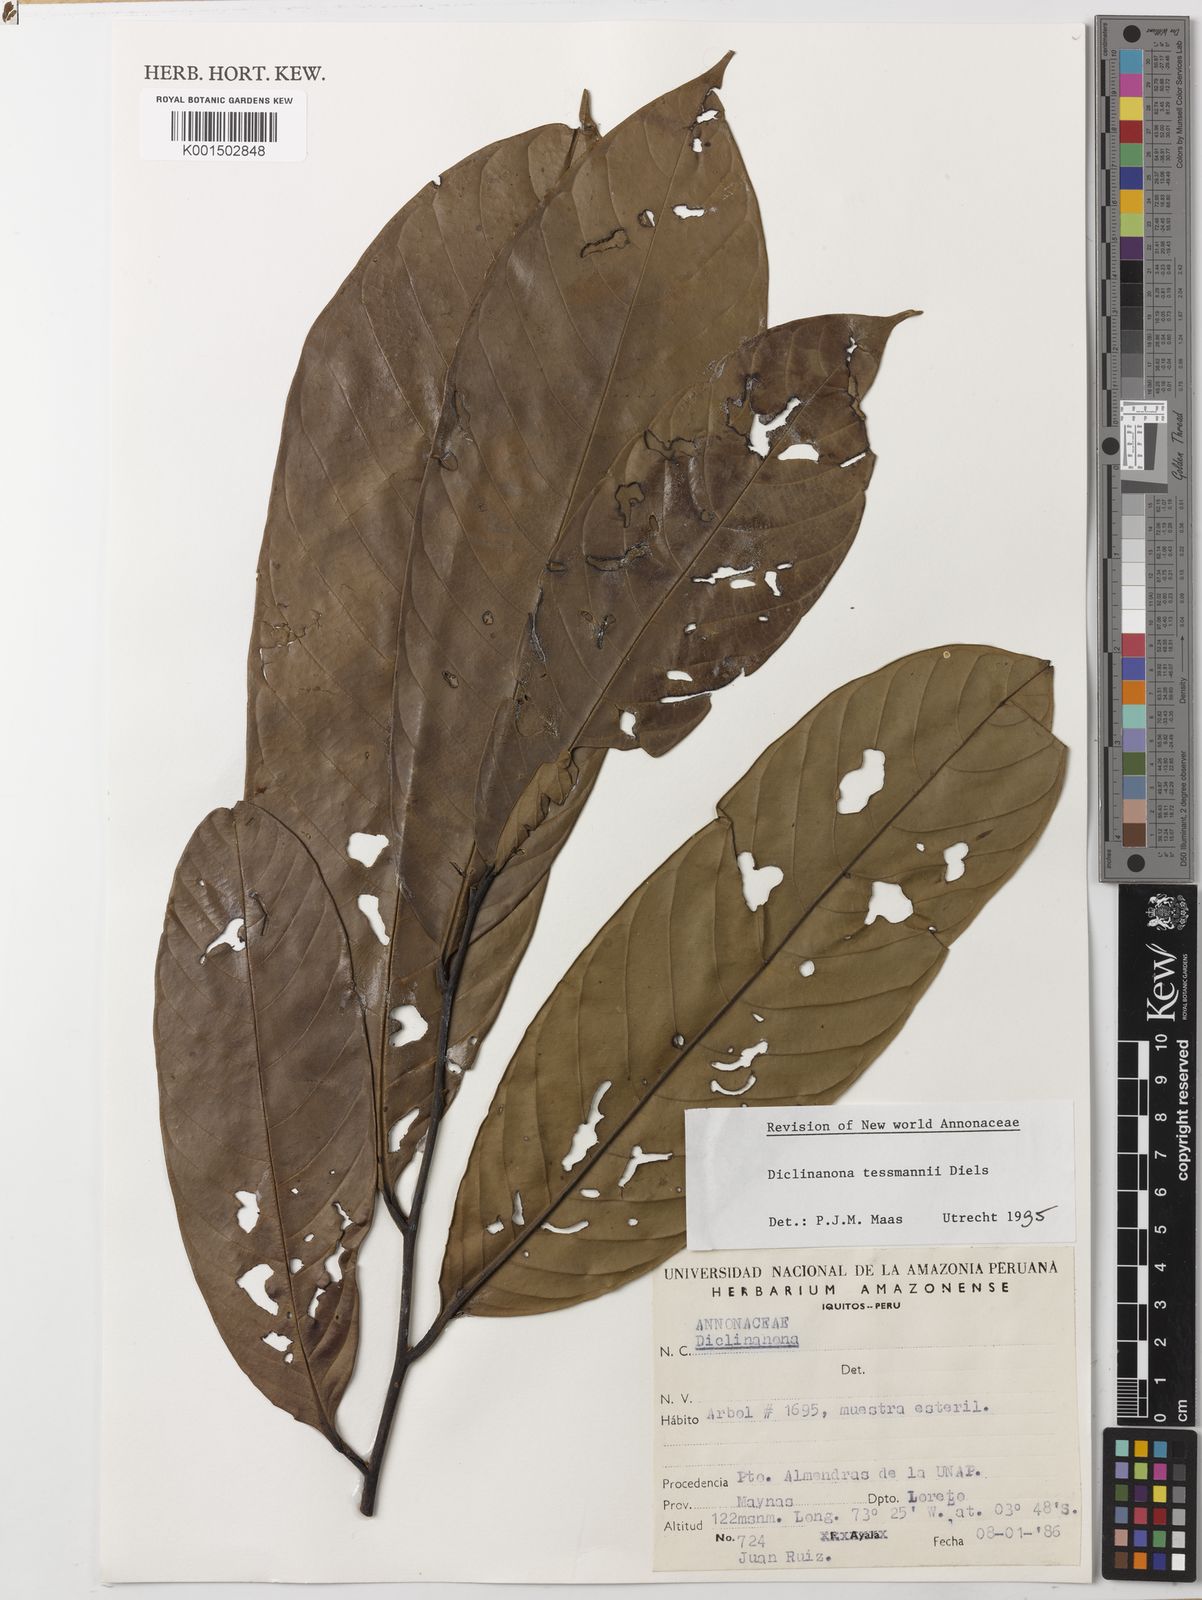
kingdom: Plantae
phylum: Tracheophyta
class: Magnoliopsida
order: Magnoliales
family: Annonaceae
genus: Diclinanona
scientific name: Diclinanona tessmannii
